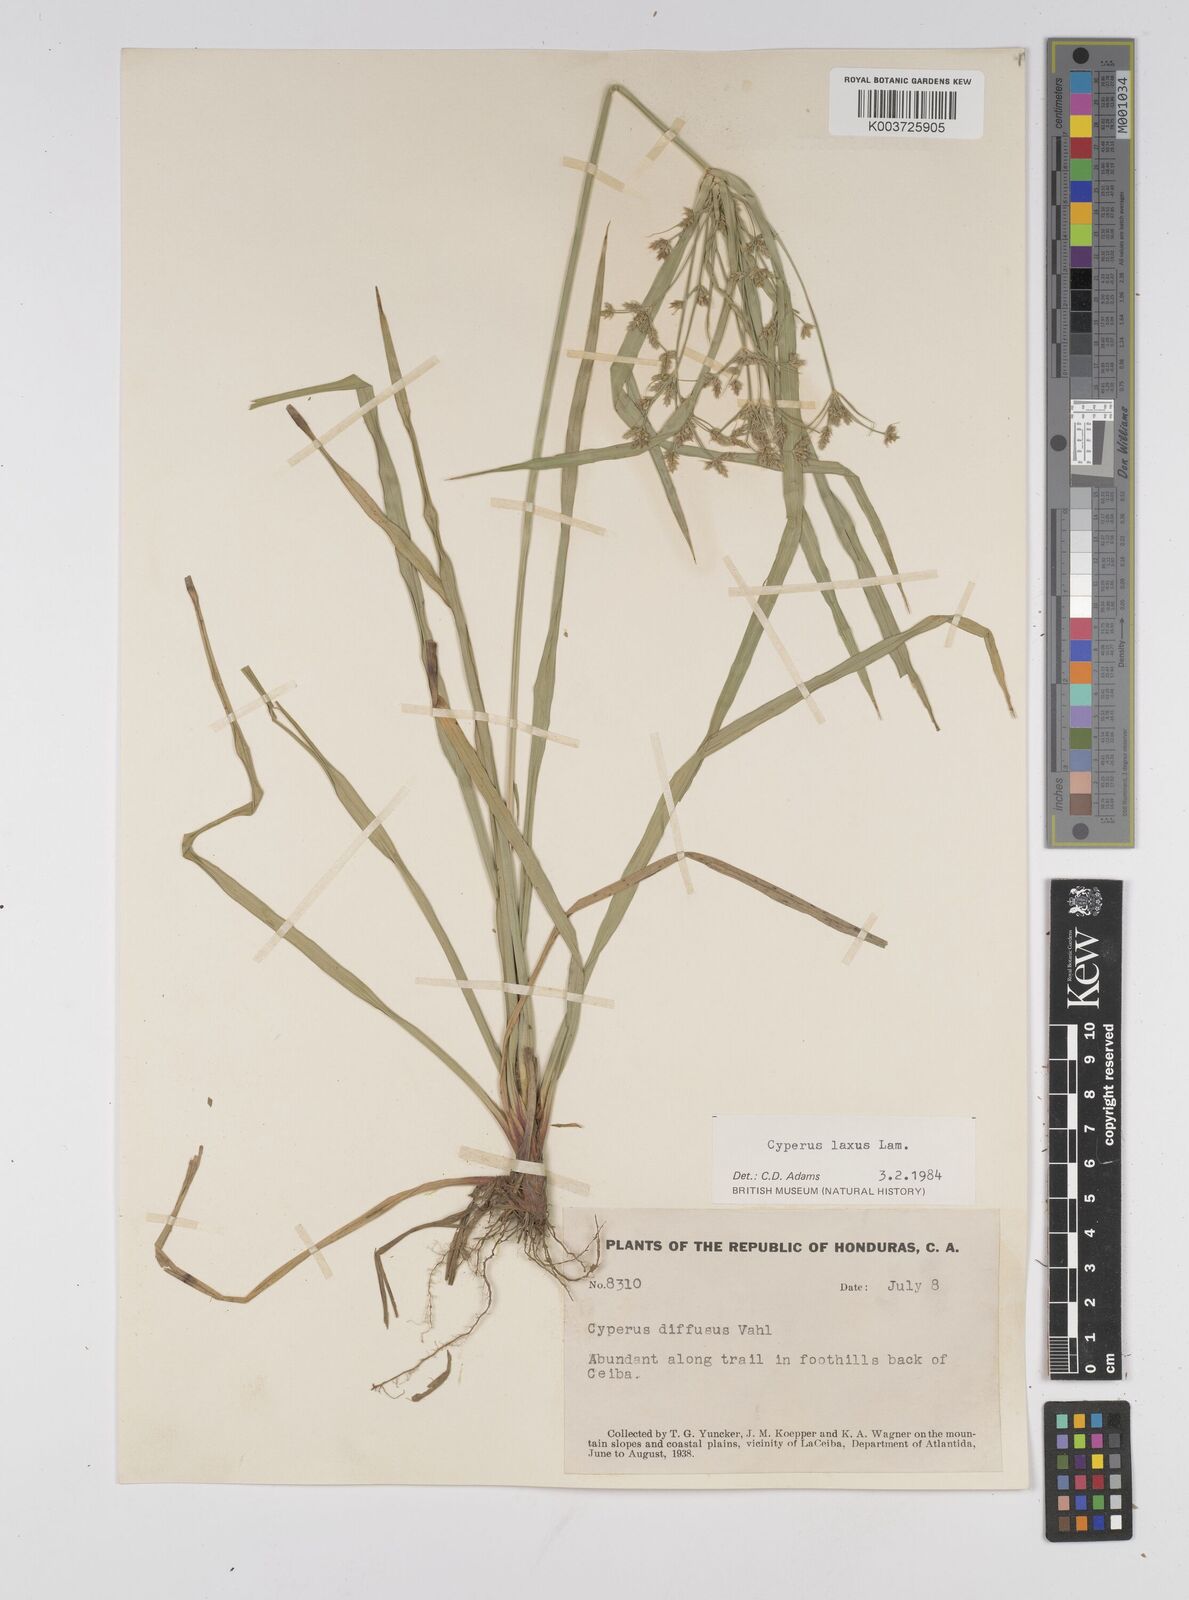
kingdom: Plantae
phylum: Tracheophyta
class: Liliopsida
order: Poales
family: Cyperaceae
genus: Cyperus
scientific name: Cyperus chalaranthus
